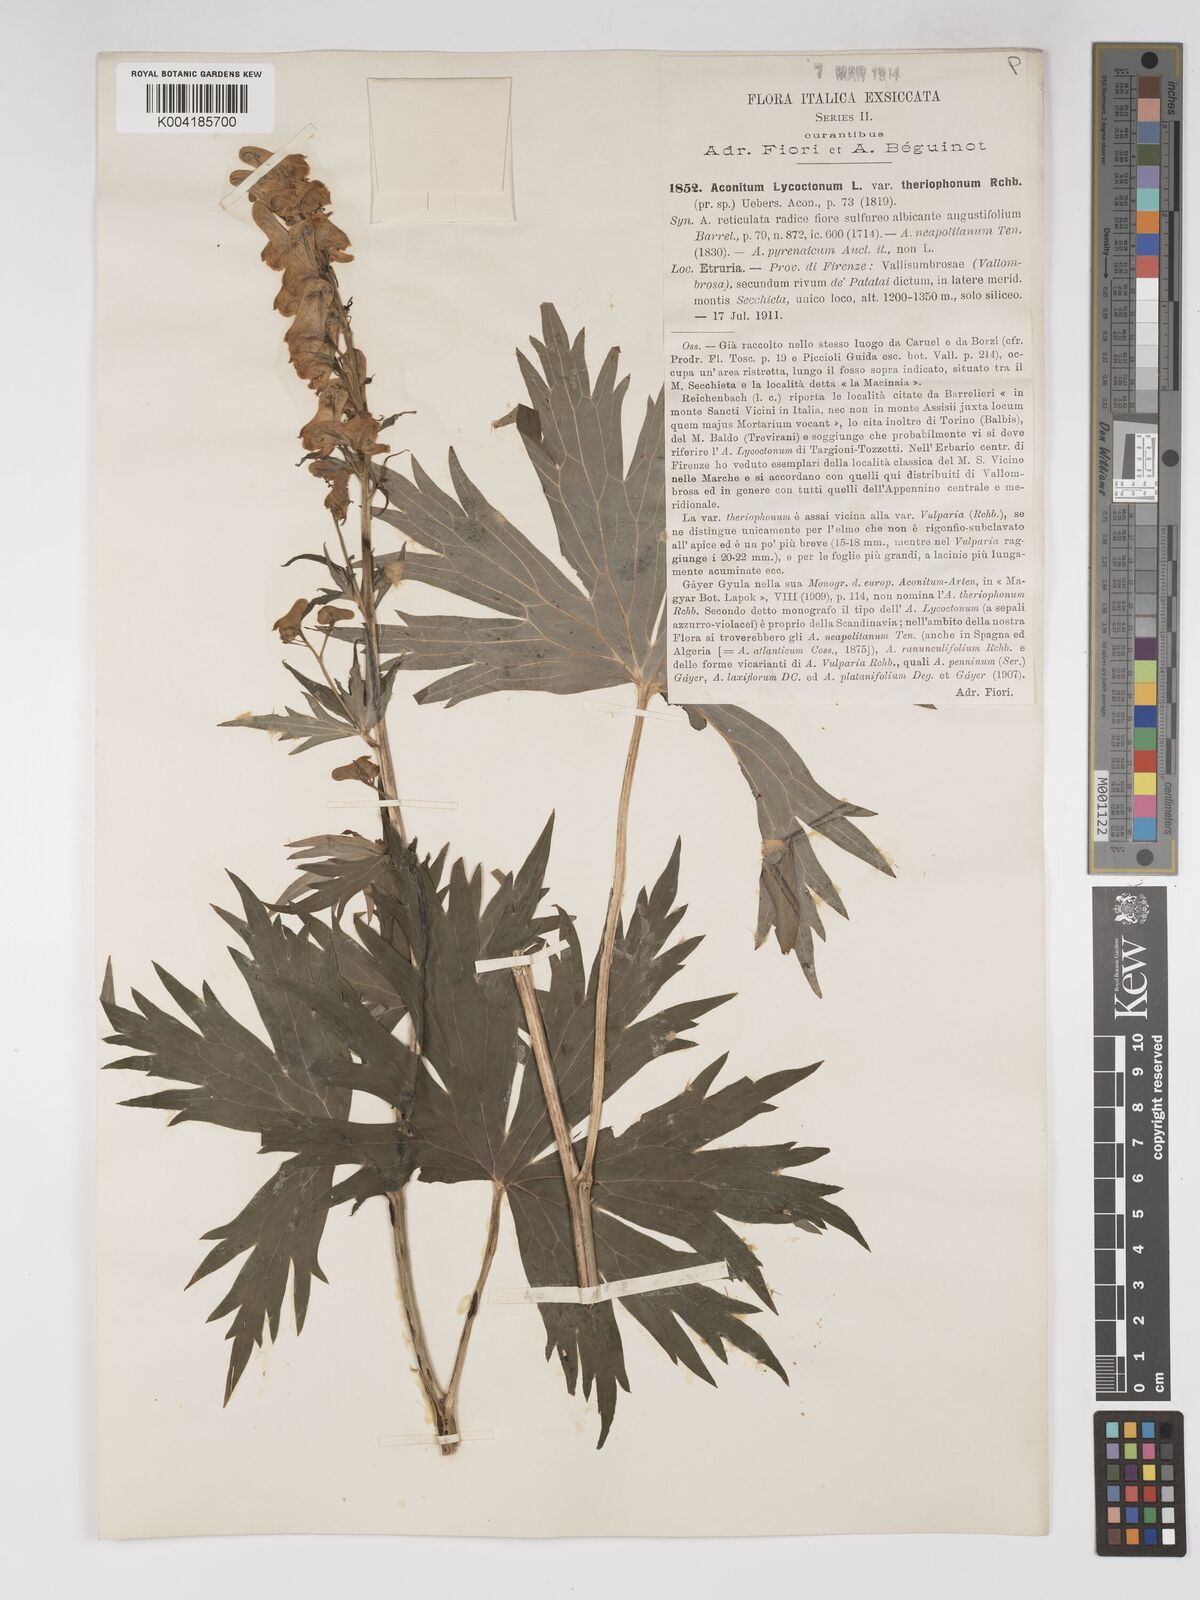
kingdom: Plantae
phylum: Tracheophyta
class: Magnoliopsida
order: Ranunculales
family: Ranunculaceae
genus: Aconitum
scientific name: Aconitum lycoctonum
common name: Wolf's-bane
